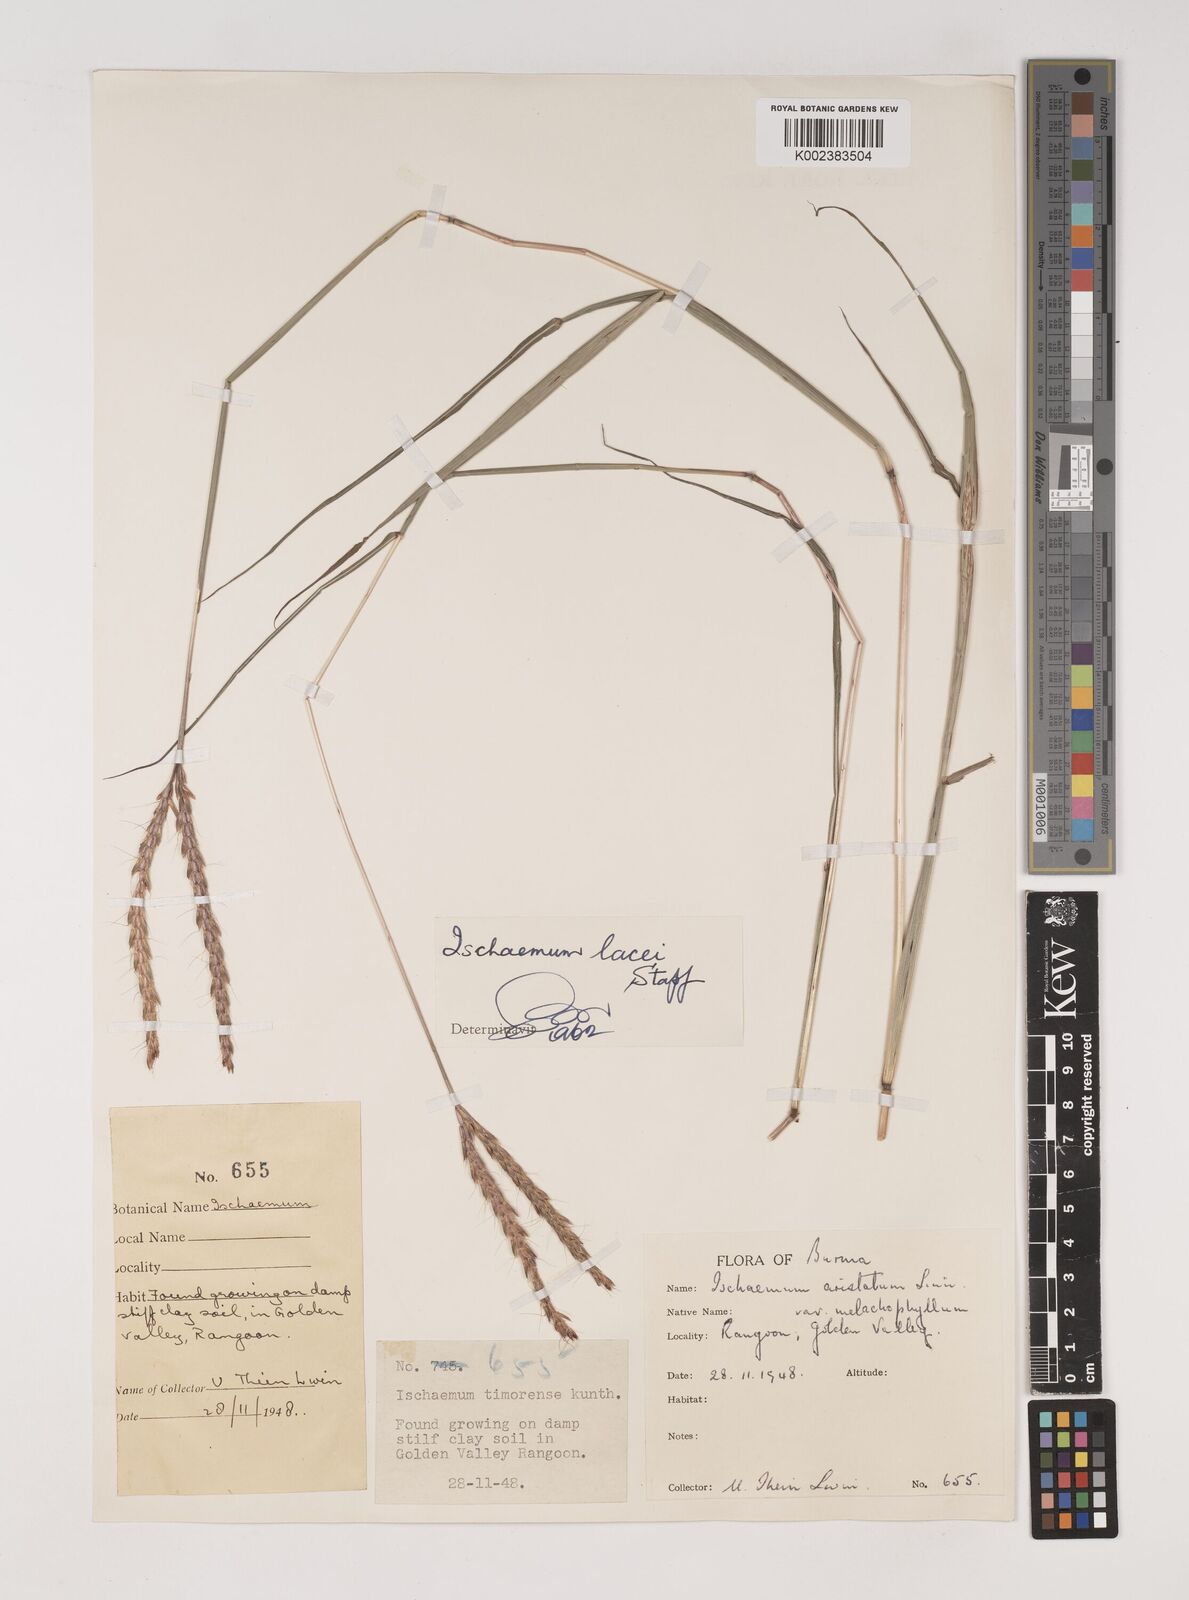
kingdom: Plantae
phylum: Tracheophyta
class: Liliopsida
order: Poales
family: Poaceae
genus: Ischaemum
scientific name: Ischaemum
